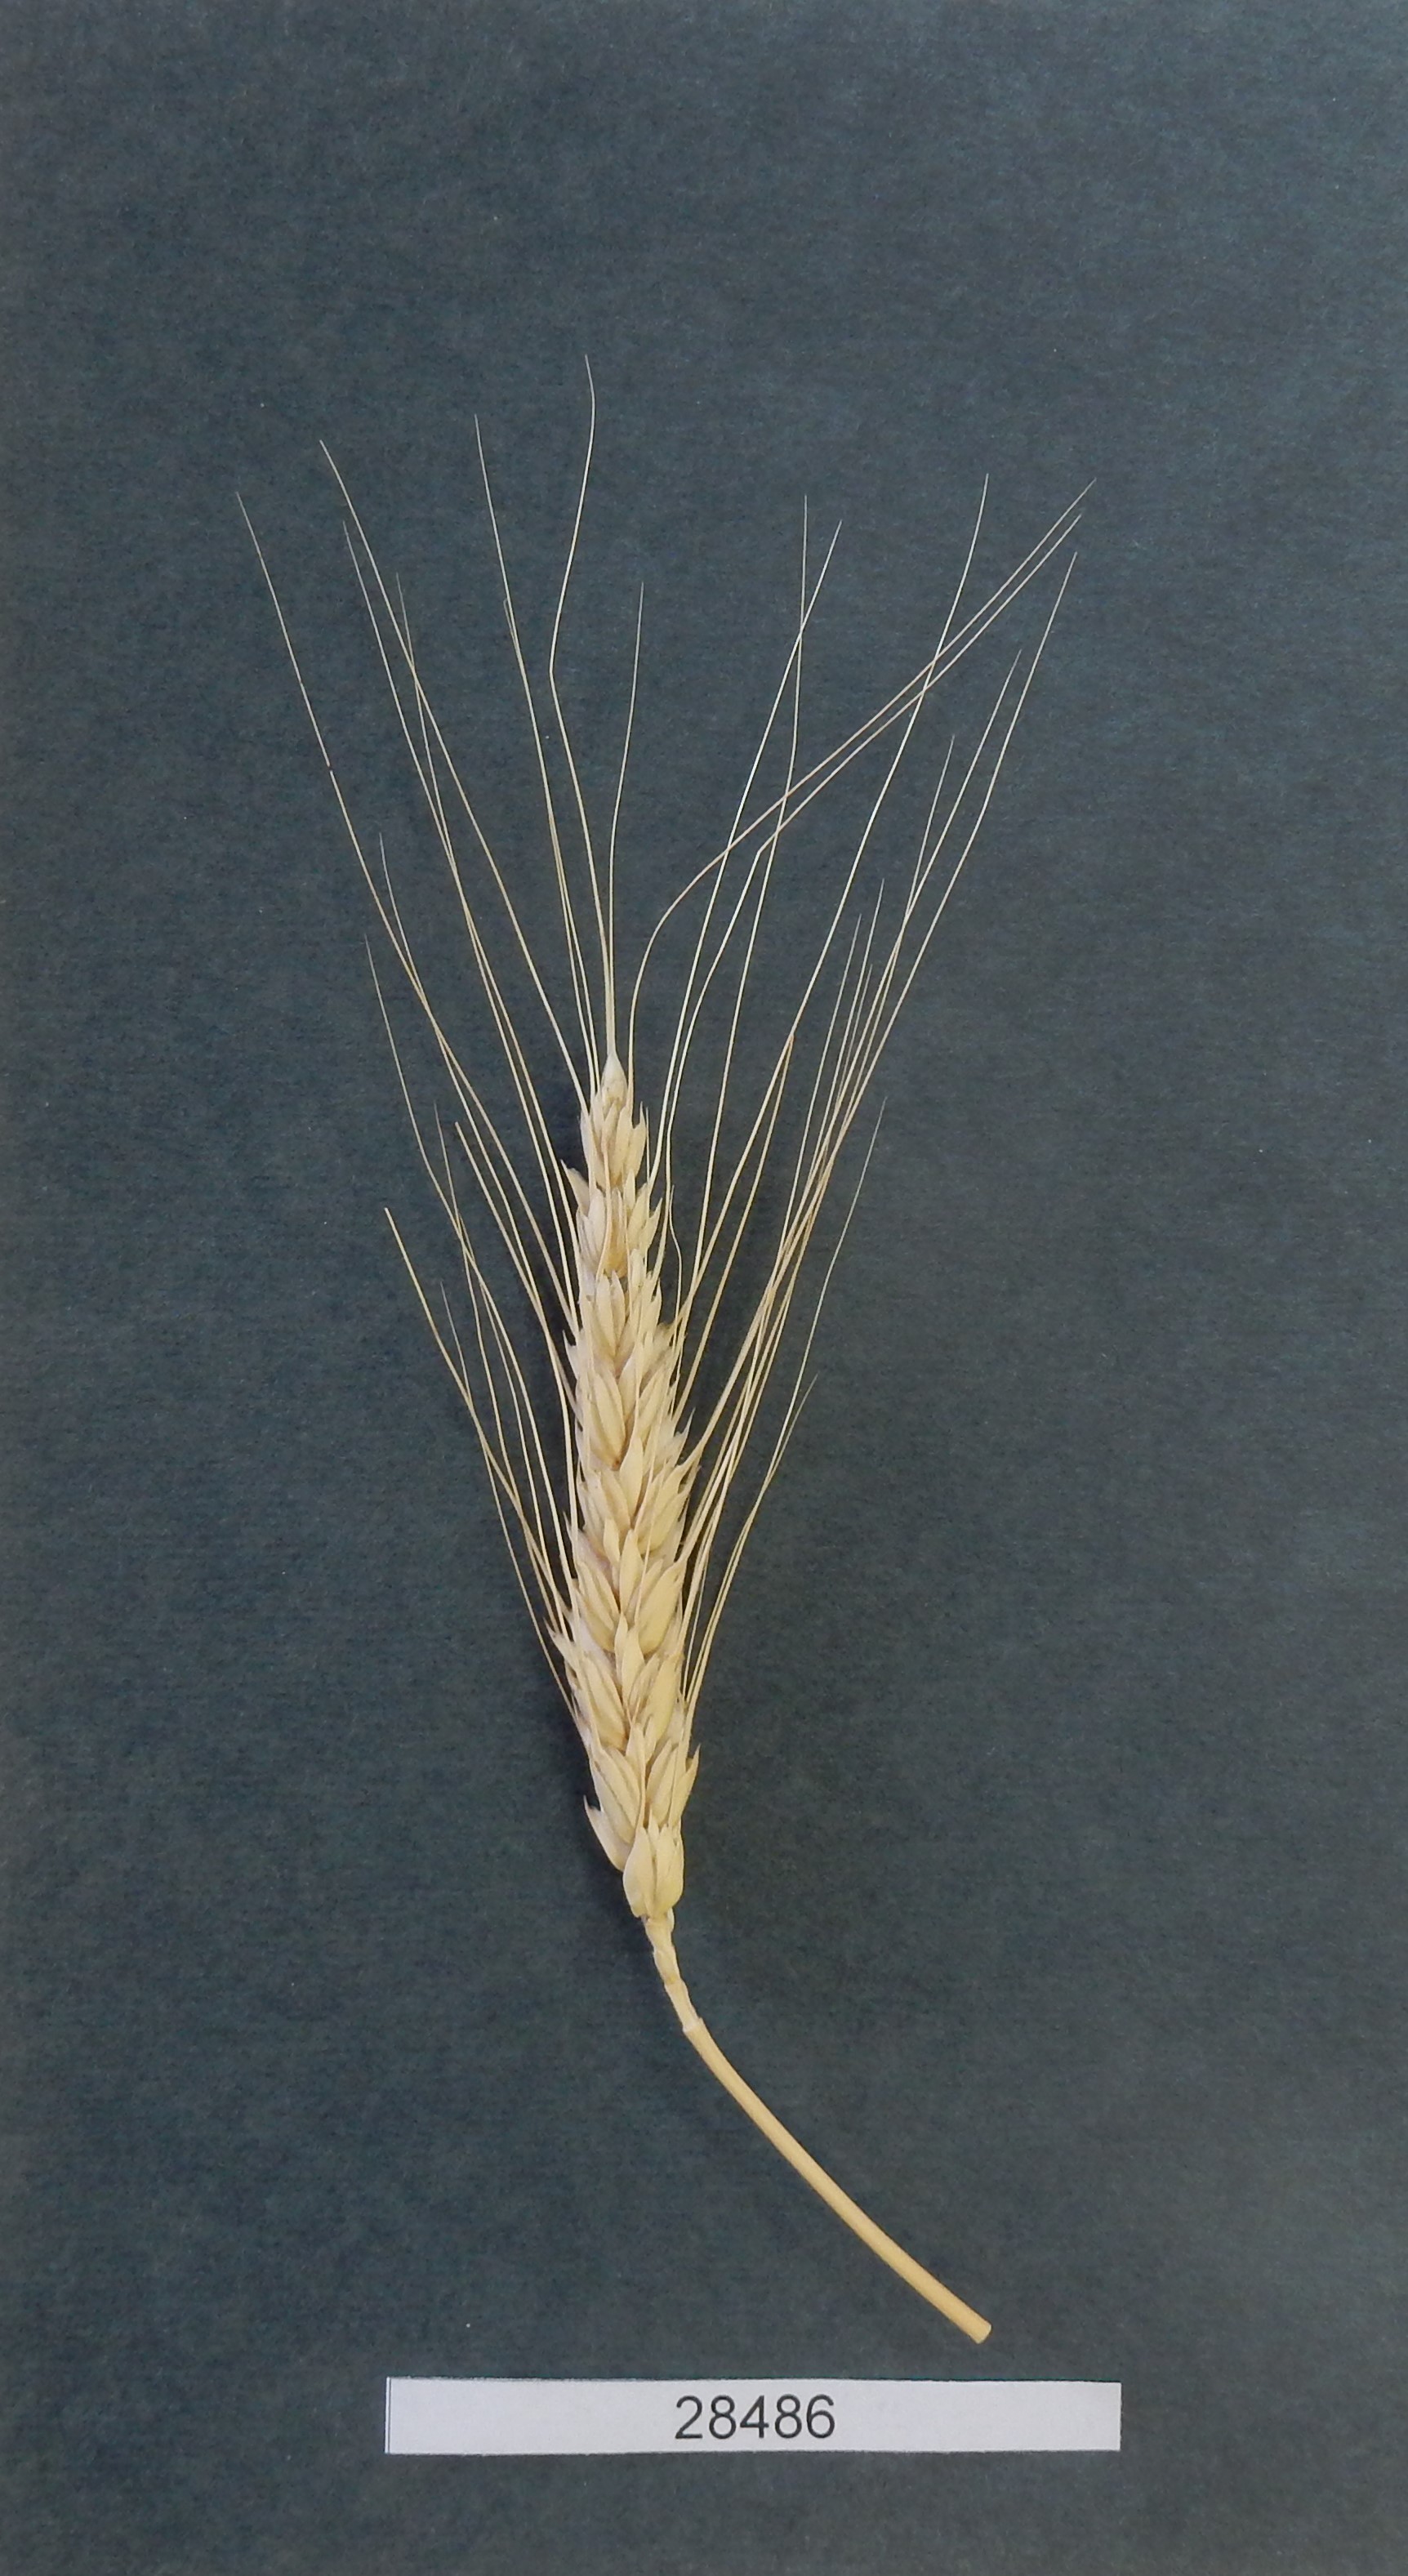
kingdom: Plantae
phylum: Tracheophyta
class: Liliopsida
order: Poales
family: Poaceae
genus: Triticum
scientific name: Triticum aestivum
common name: Common wheat
